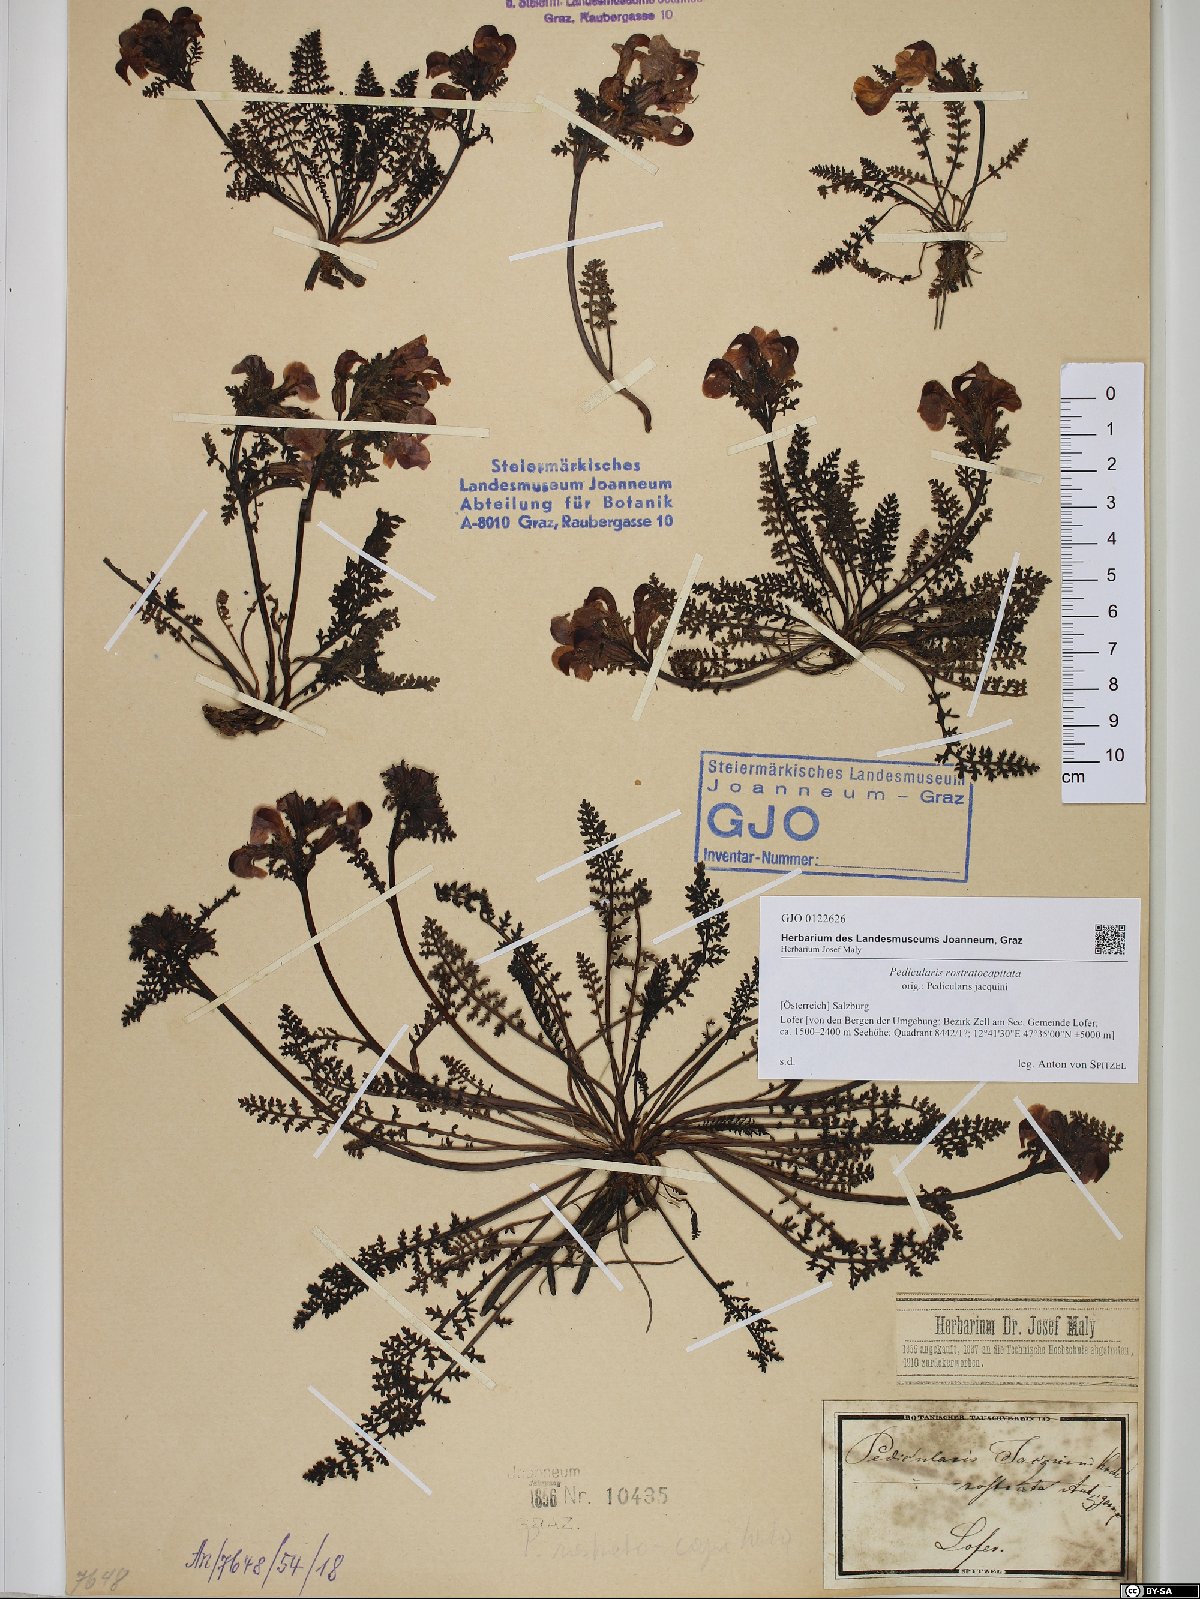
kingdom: Plantae
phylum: Tracheophyta
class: Magnoliopsida
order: Lamiales
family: Orobanchaceae
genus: Pedicularis
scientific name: Pedicularis rostratocapitata
